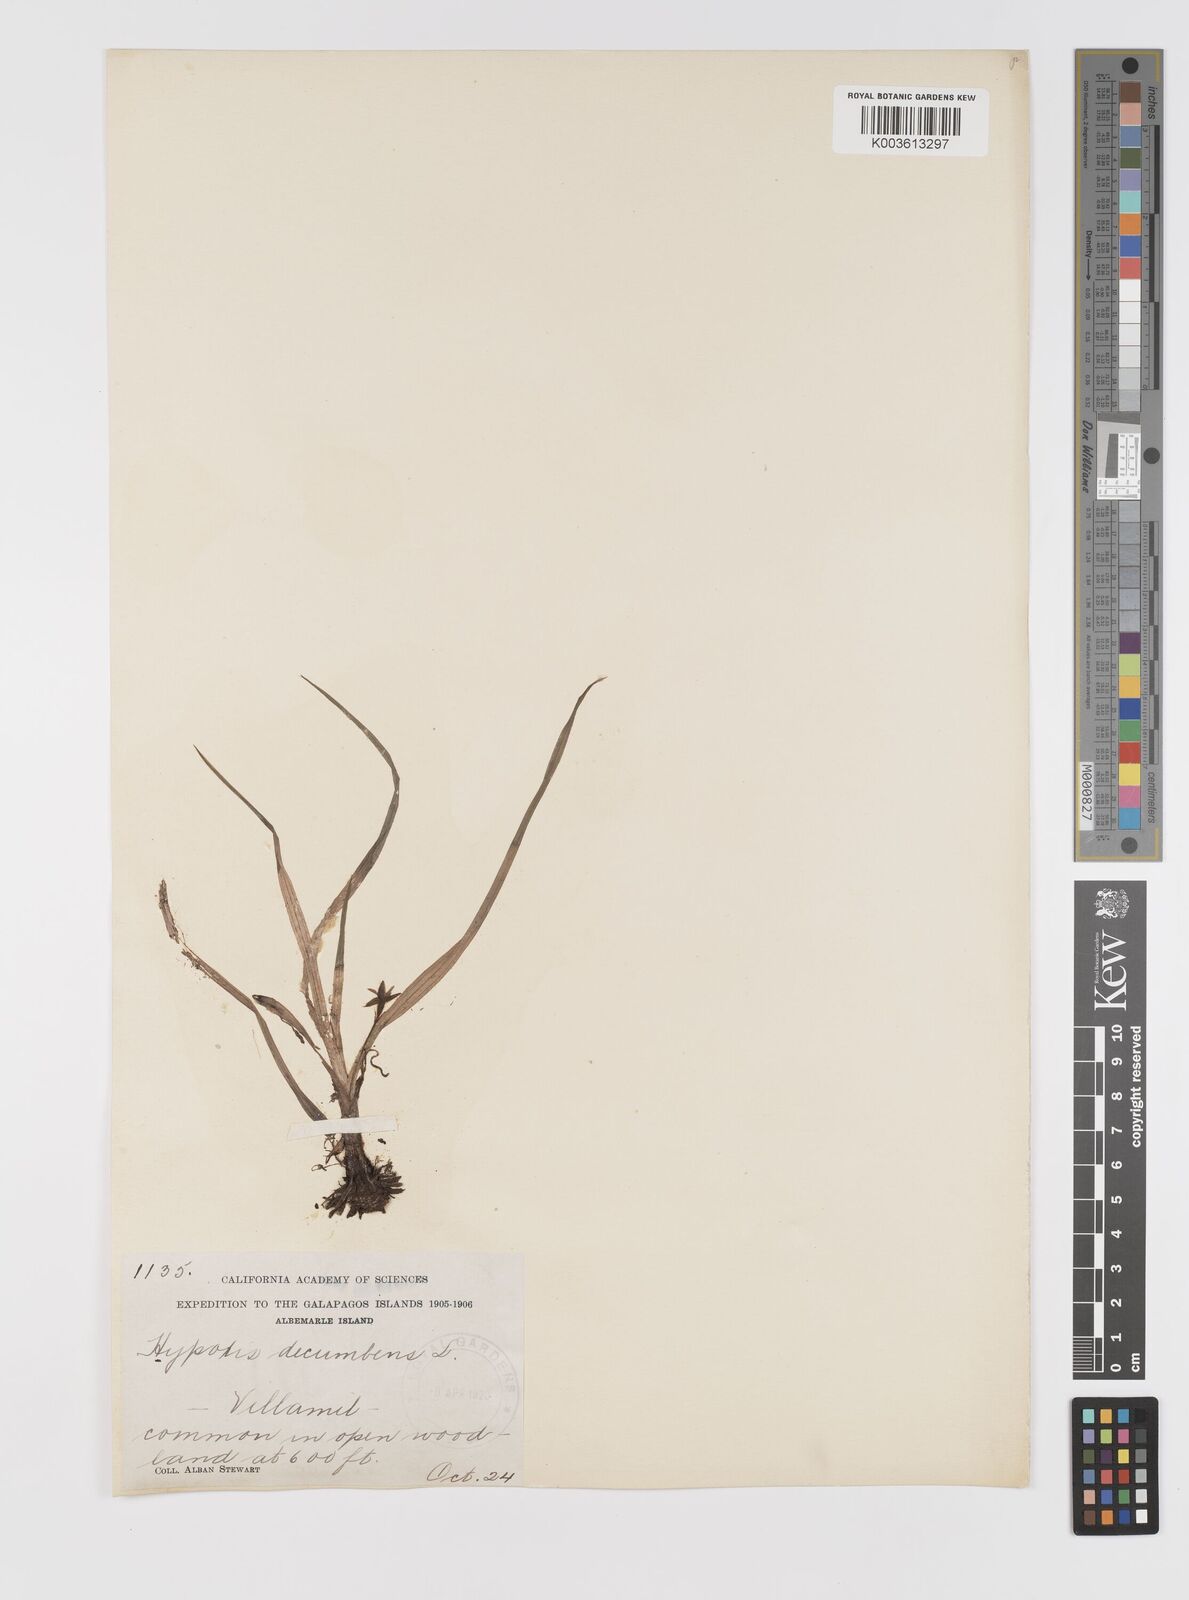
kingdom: Plantae
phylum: Tracheophyta
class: Liliopsida
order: Asparagales
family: Hypoxidaceae
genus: Hypoxis
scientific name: Hypoxis decumbens
